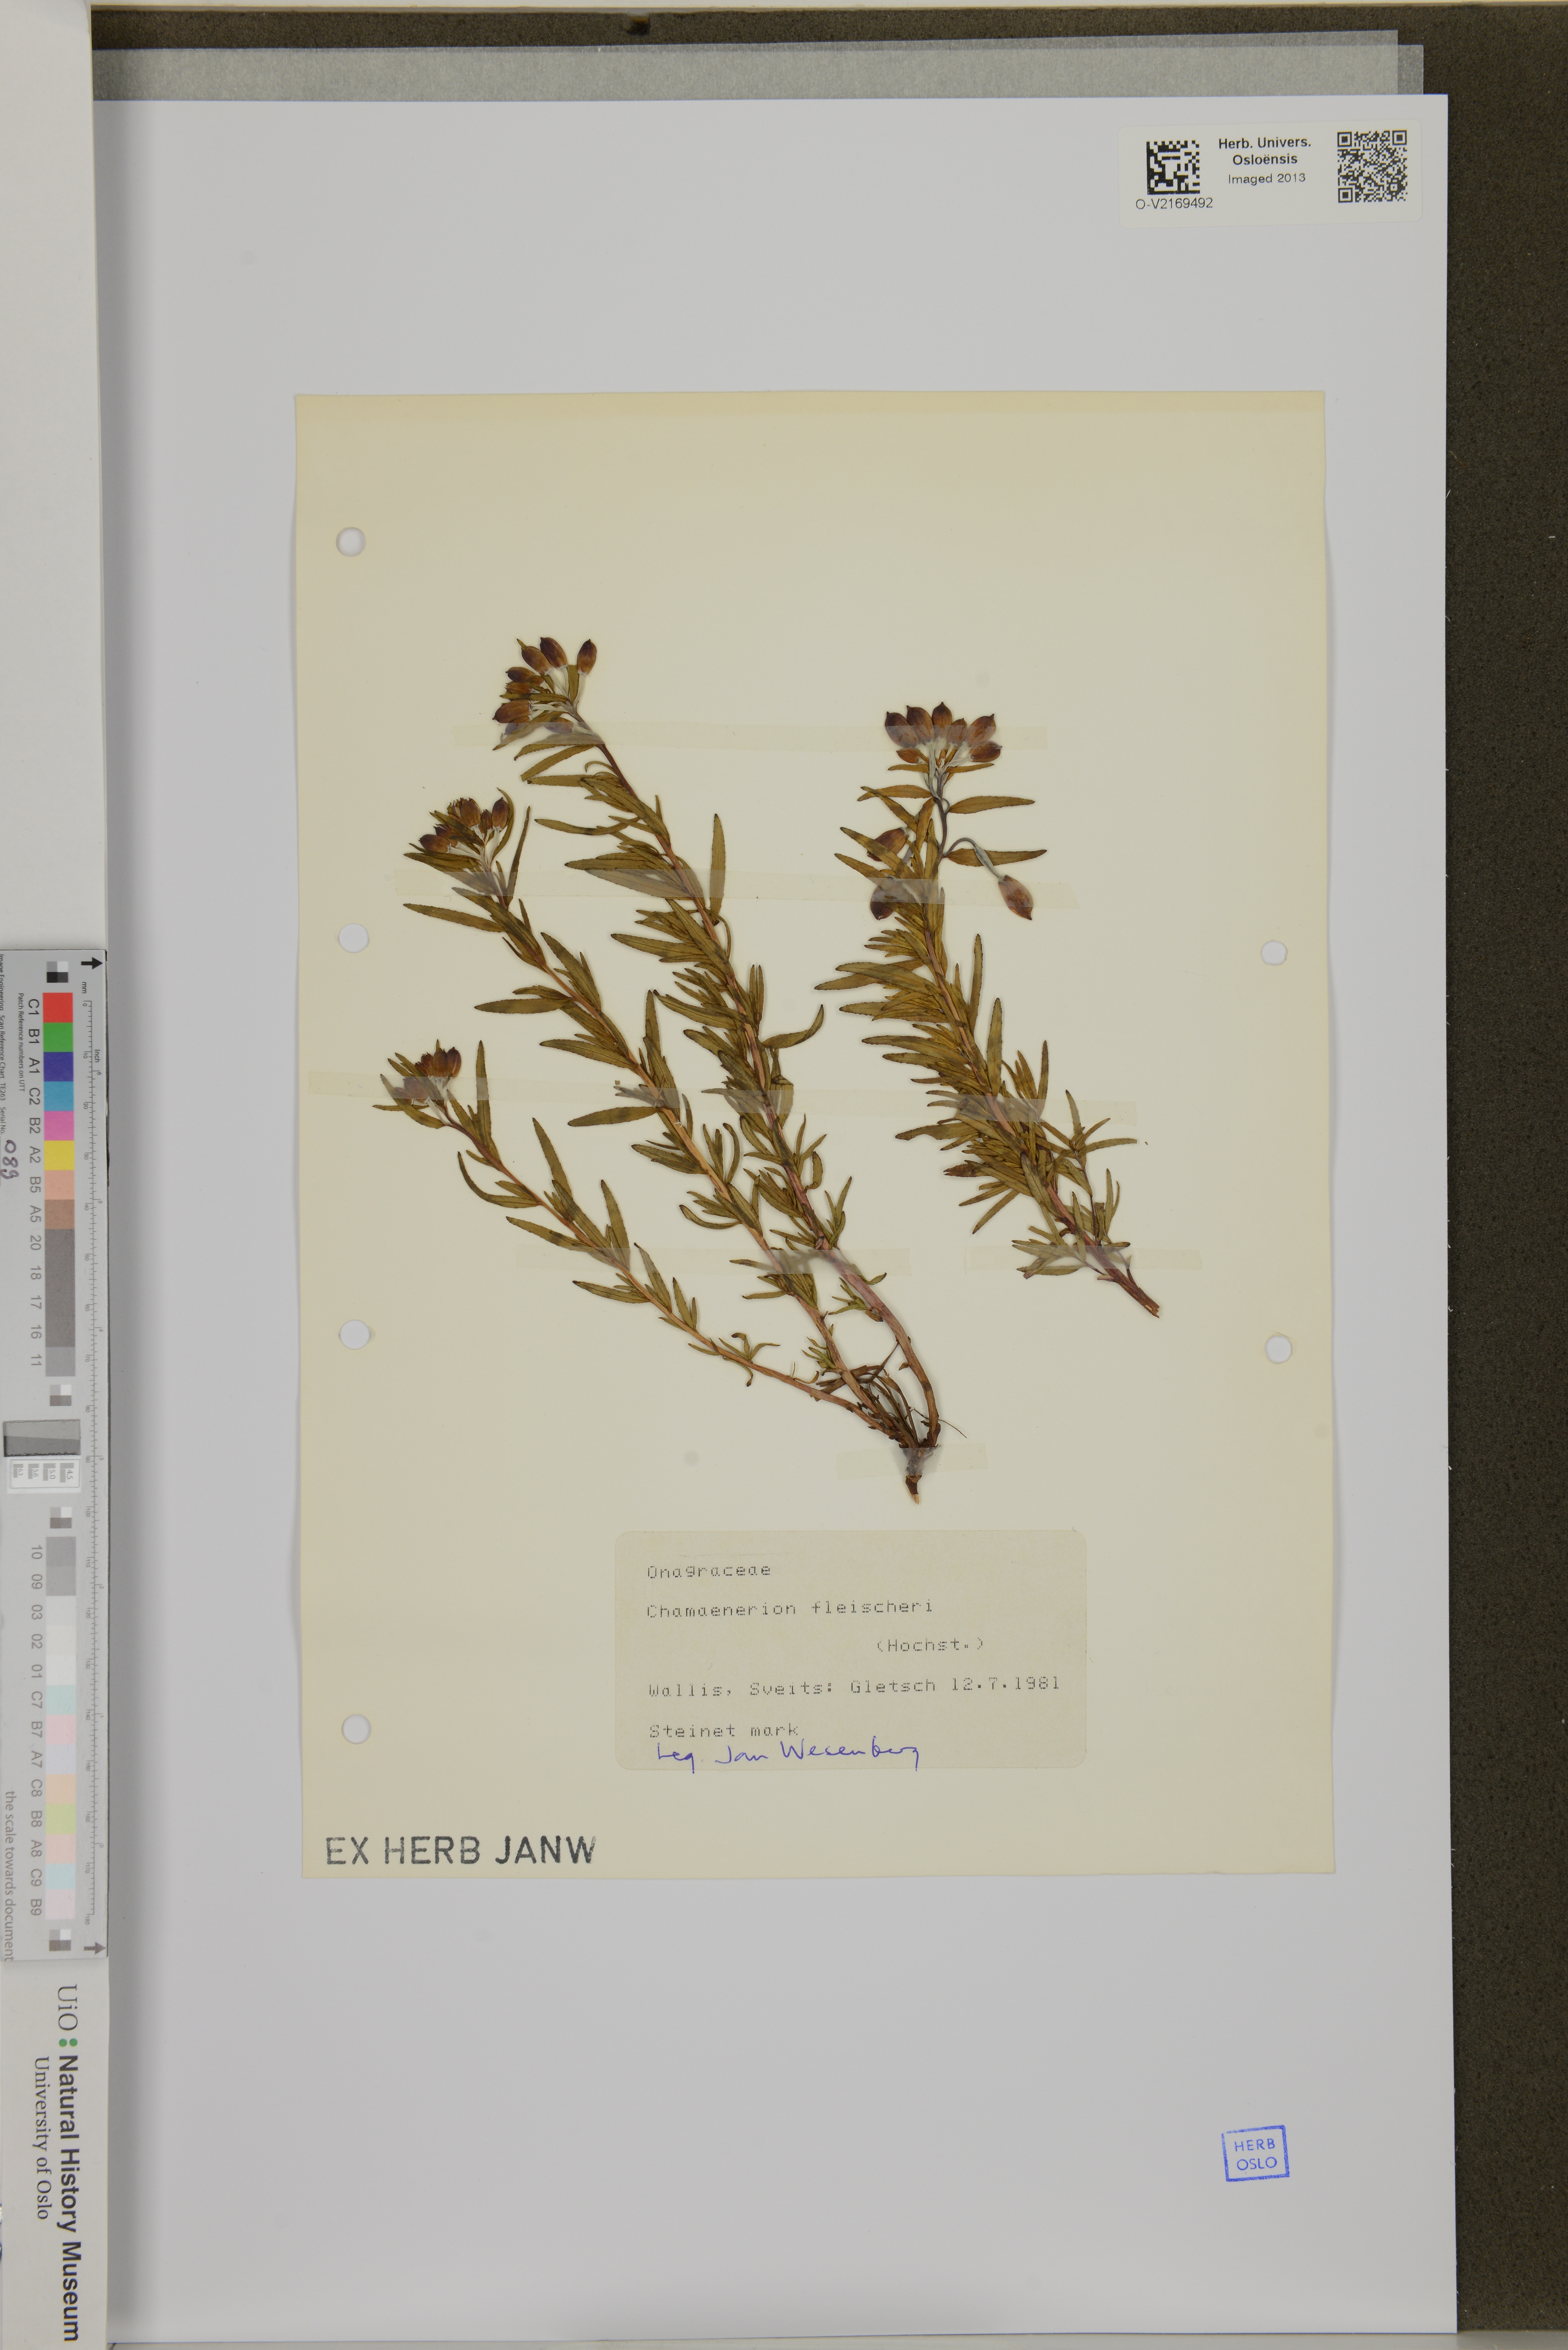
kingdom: Plantae
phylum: Tracheophyta
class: Magnoliopsida
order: Myrtales
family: Onagraceae
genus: Chamaenerion
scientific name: Chamaenerion fleischeri
